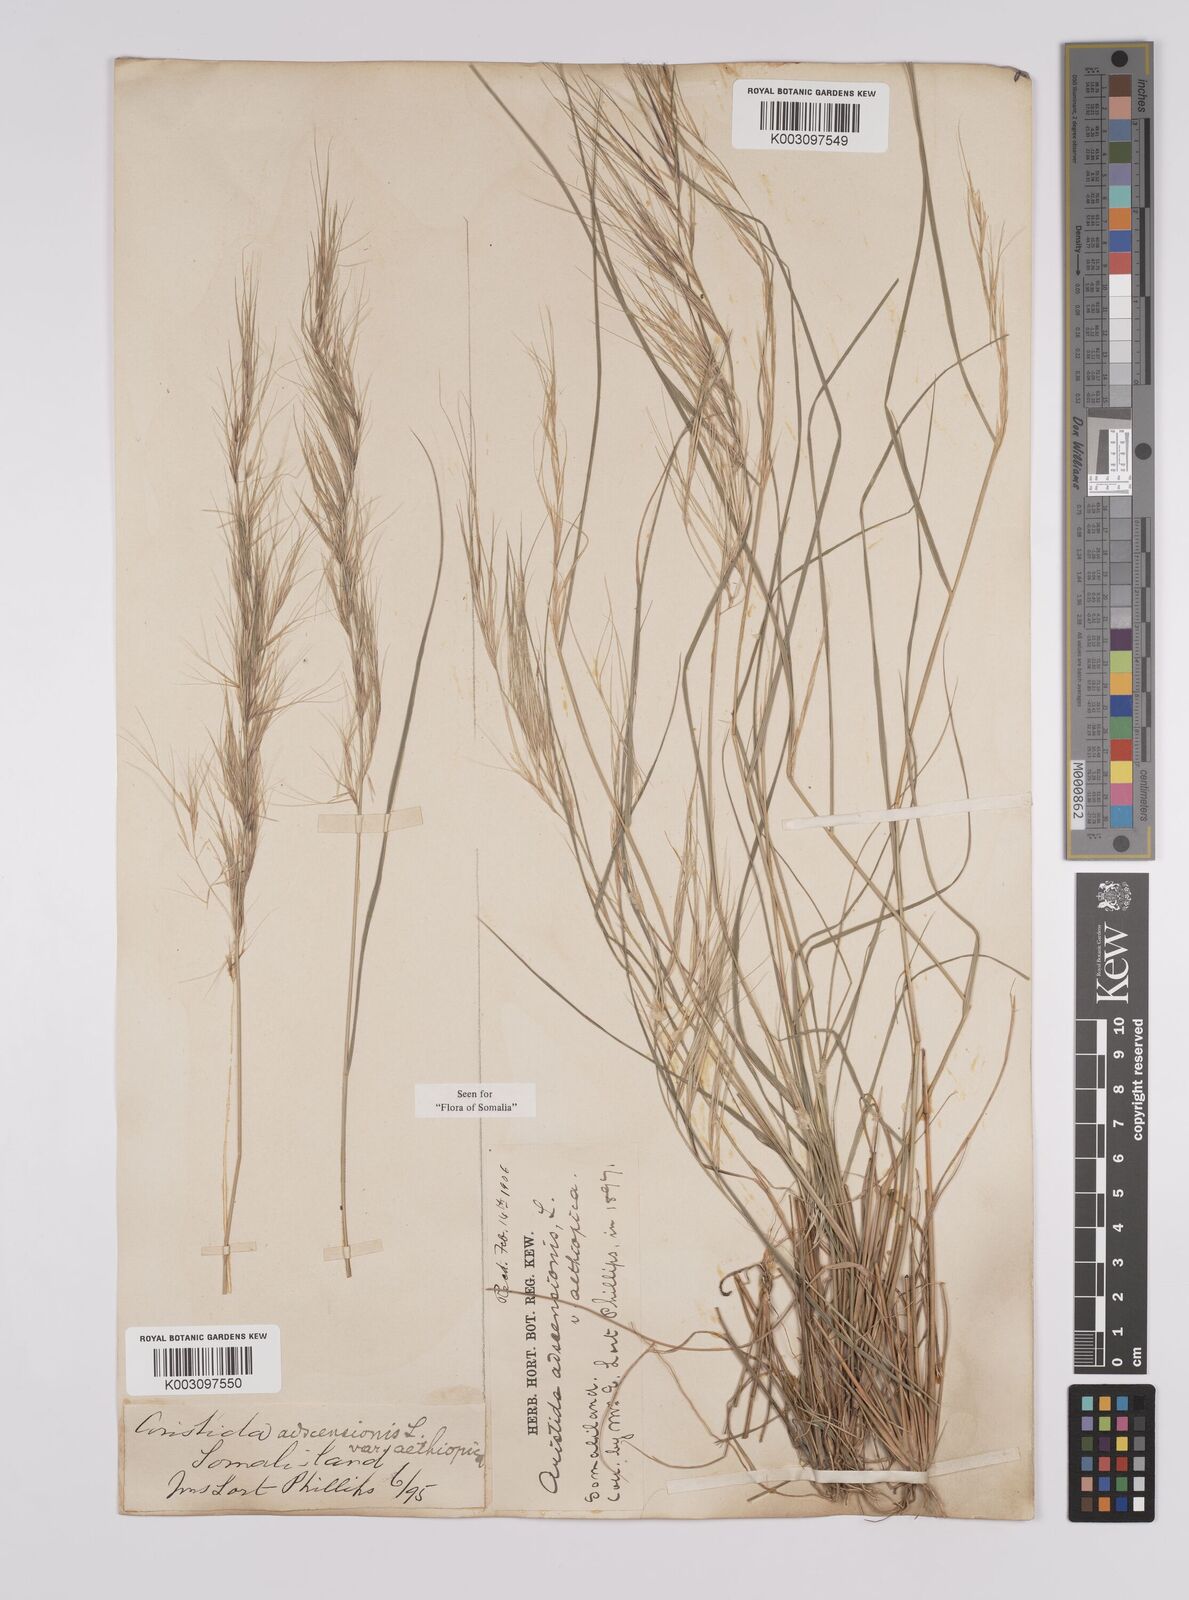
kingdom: Plantae
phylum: Tracheophyta
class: Liliopsida
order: Poales
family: Poaceae
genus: Aristida
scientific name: Aristida adscensionis
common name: Sixweeks threeawn
